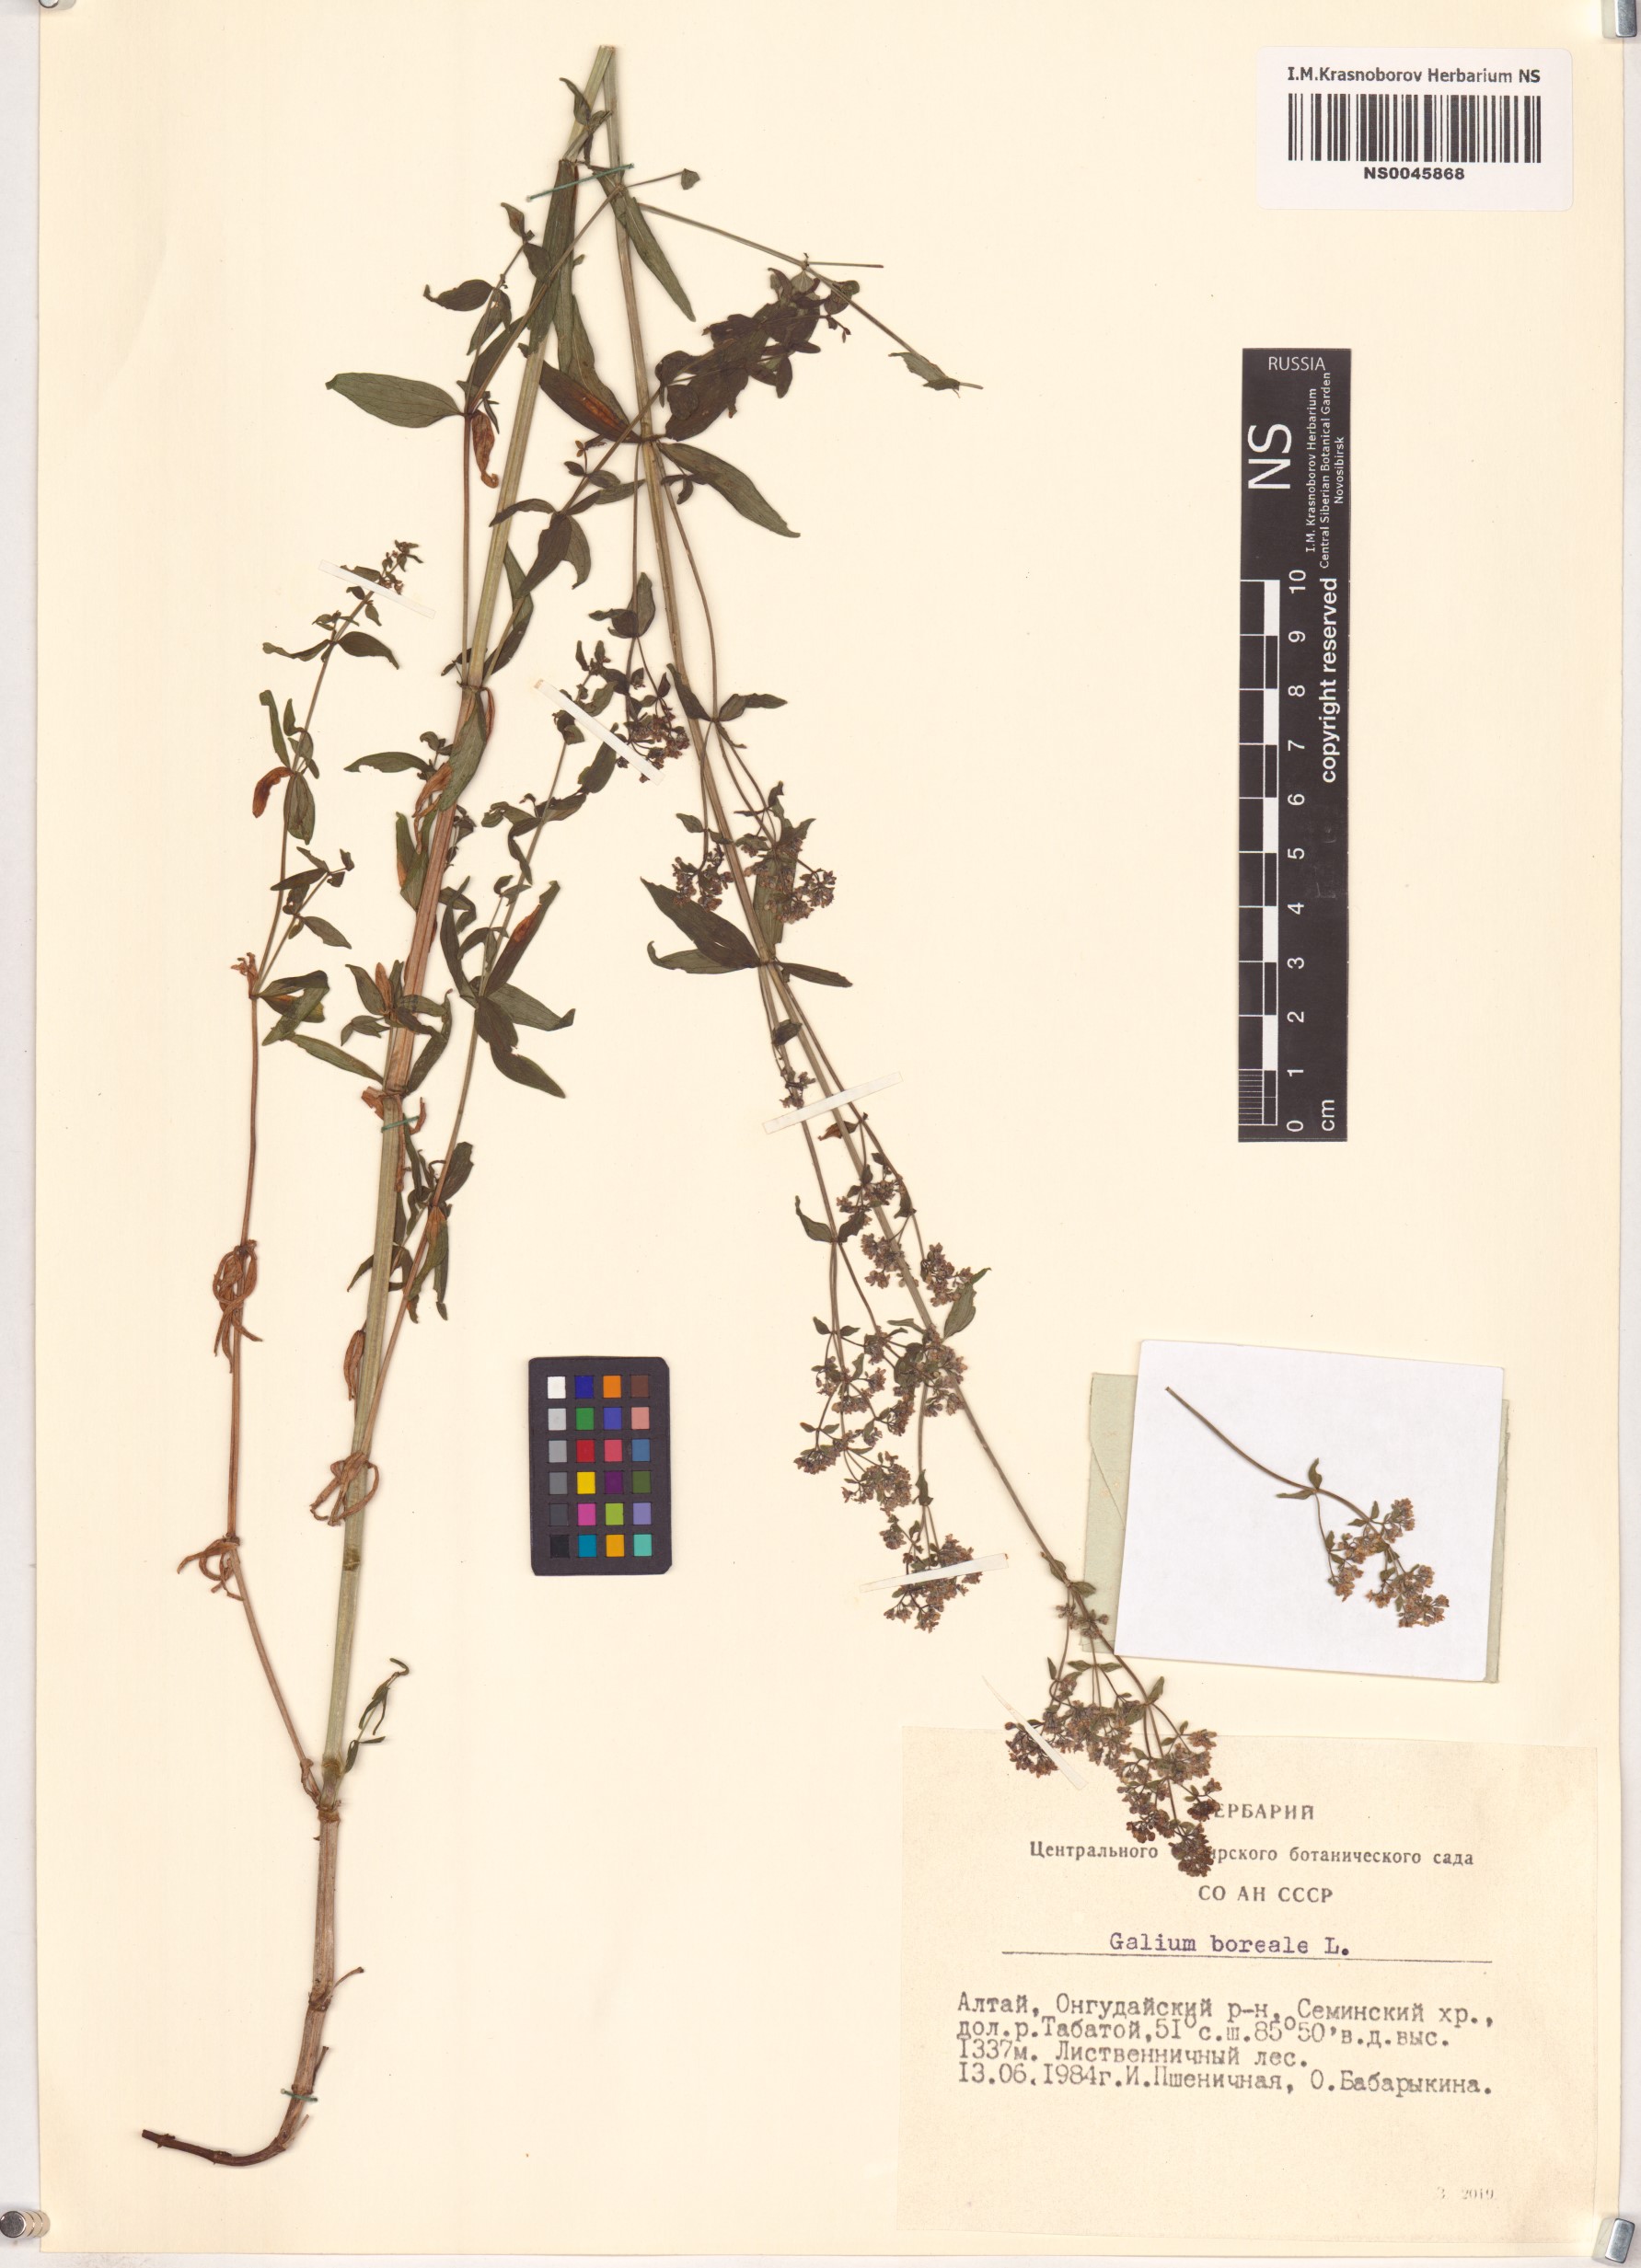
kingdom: Plantae
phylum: Tracheophyta
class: Magnoliopsida
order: Gentianales
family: Rubiaceae
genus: Galium
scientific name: Galium boreale
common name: Northern bedstraw
